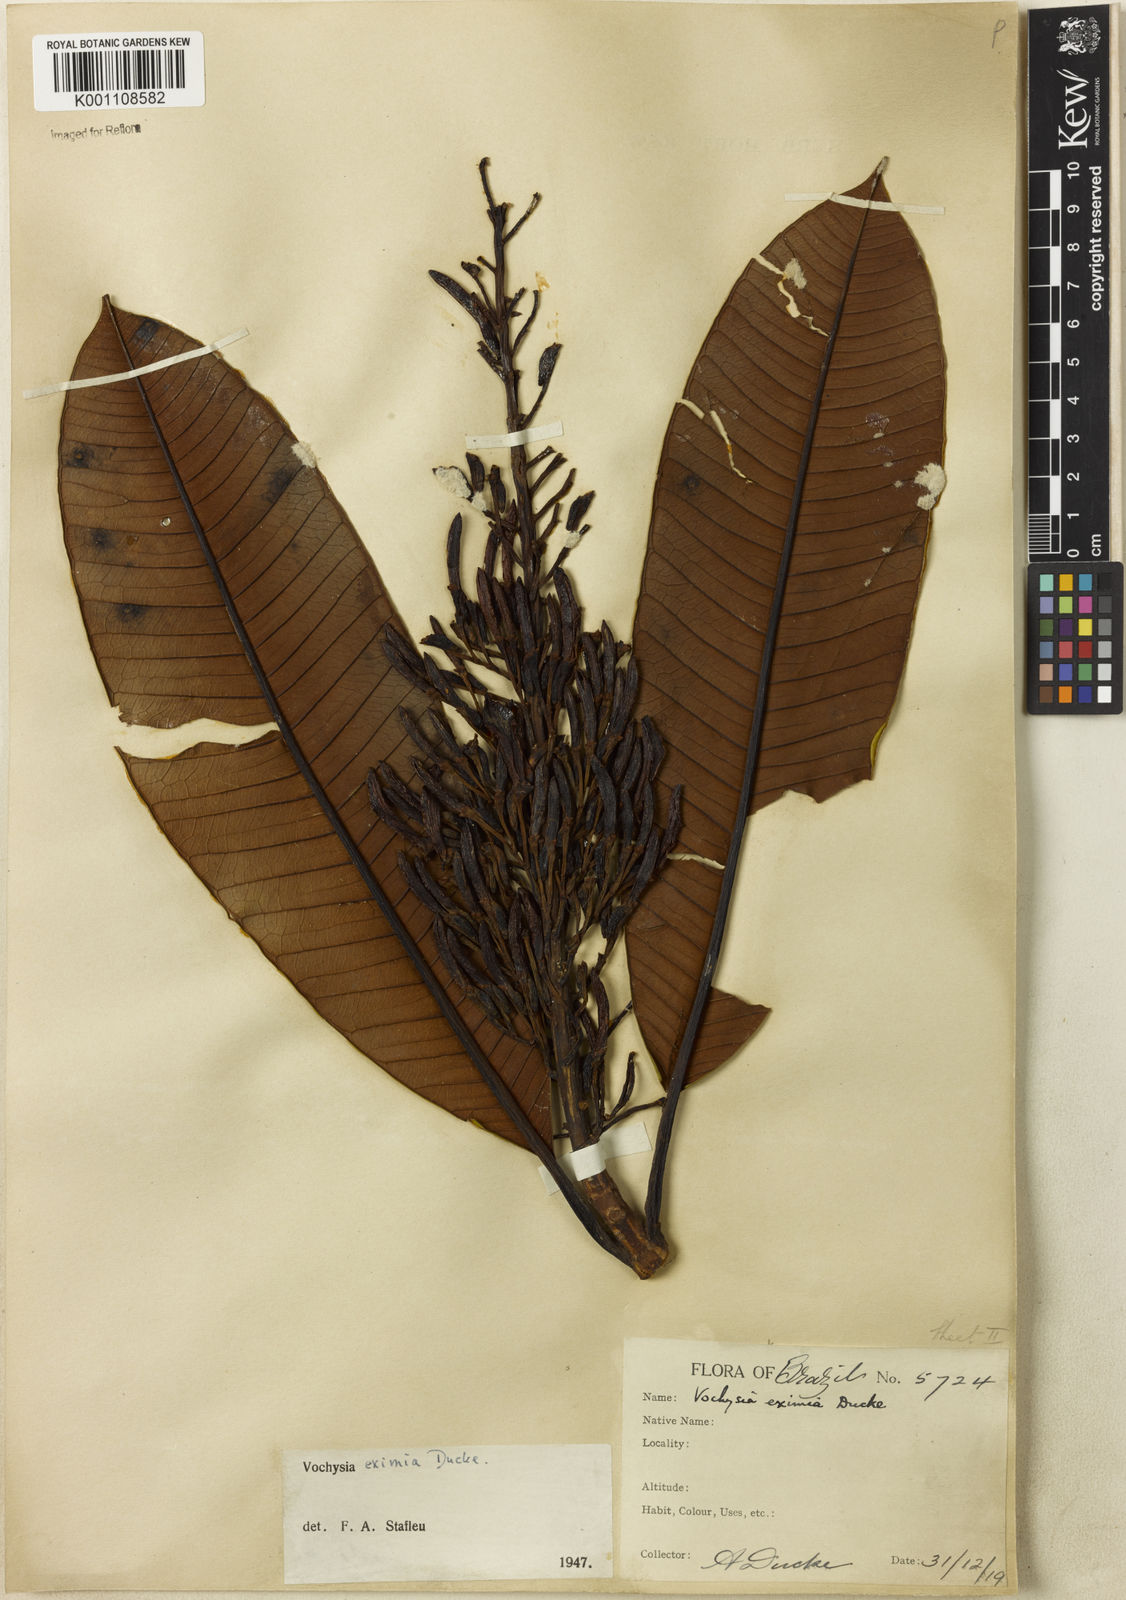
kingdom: Plantae
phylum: Tracheophyta
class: Magnoliopsida
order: Myrtales
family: Vochysiaceae
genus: Vochysia
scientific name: Vochysia eximia
